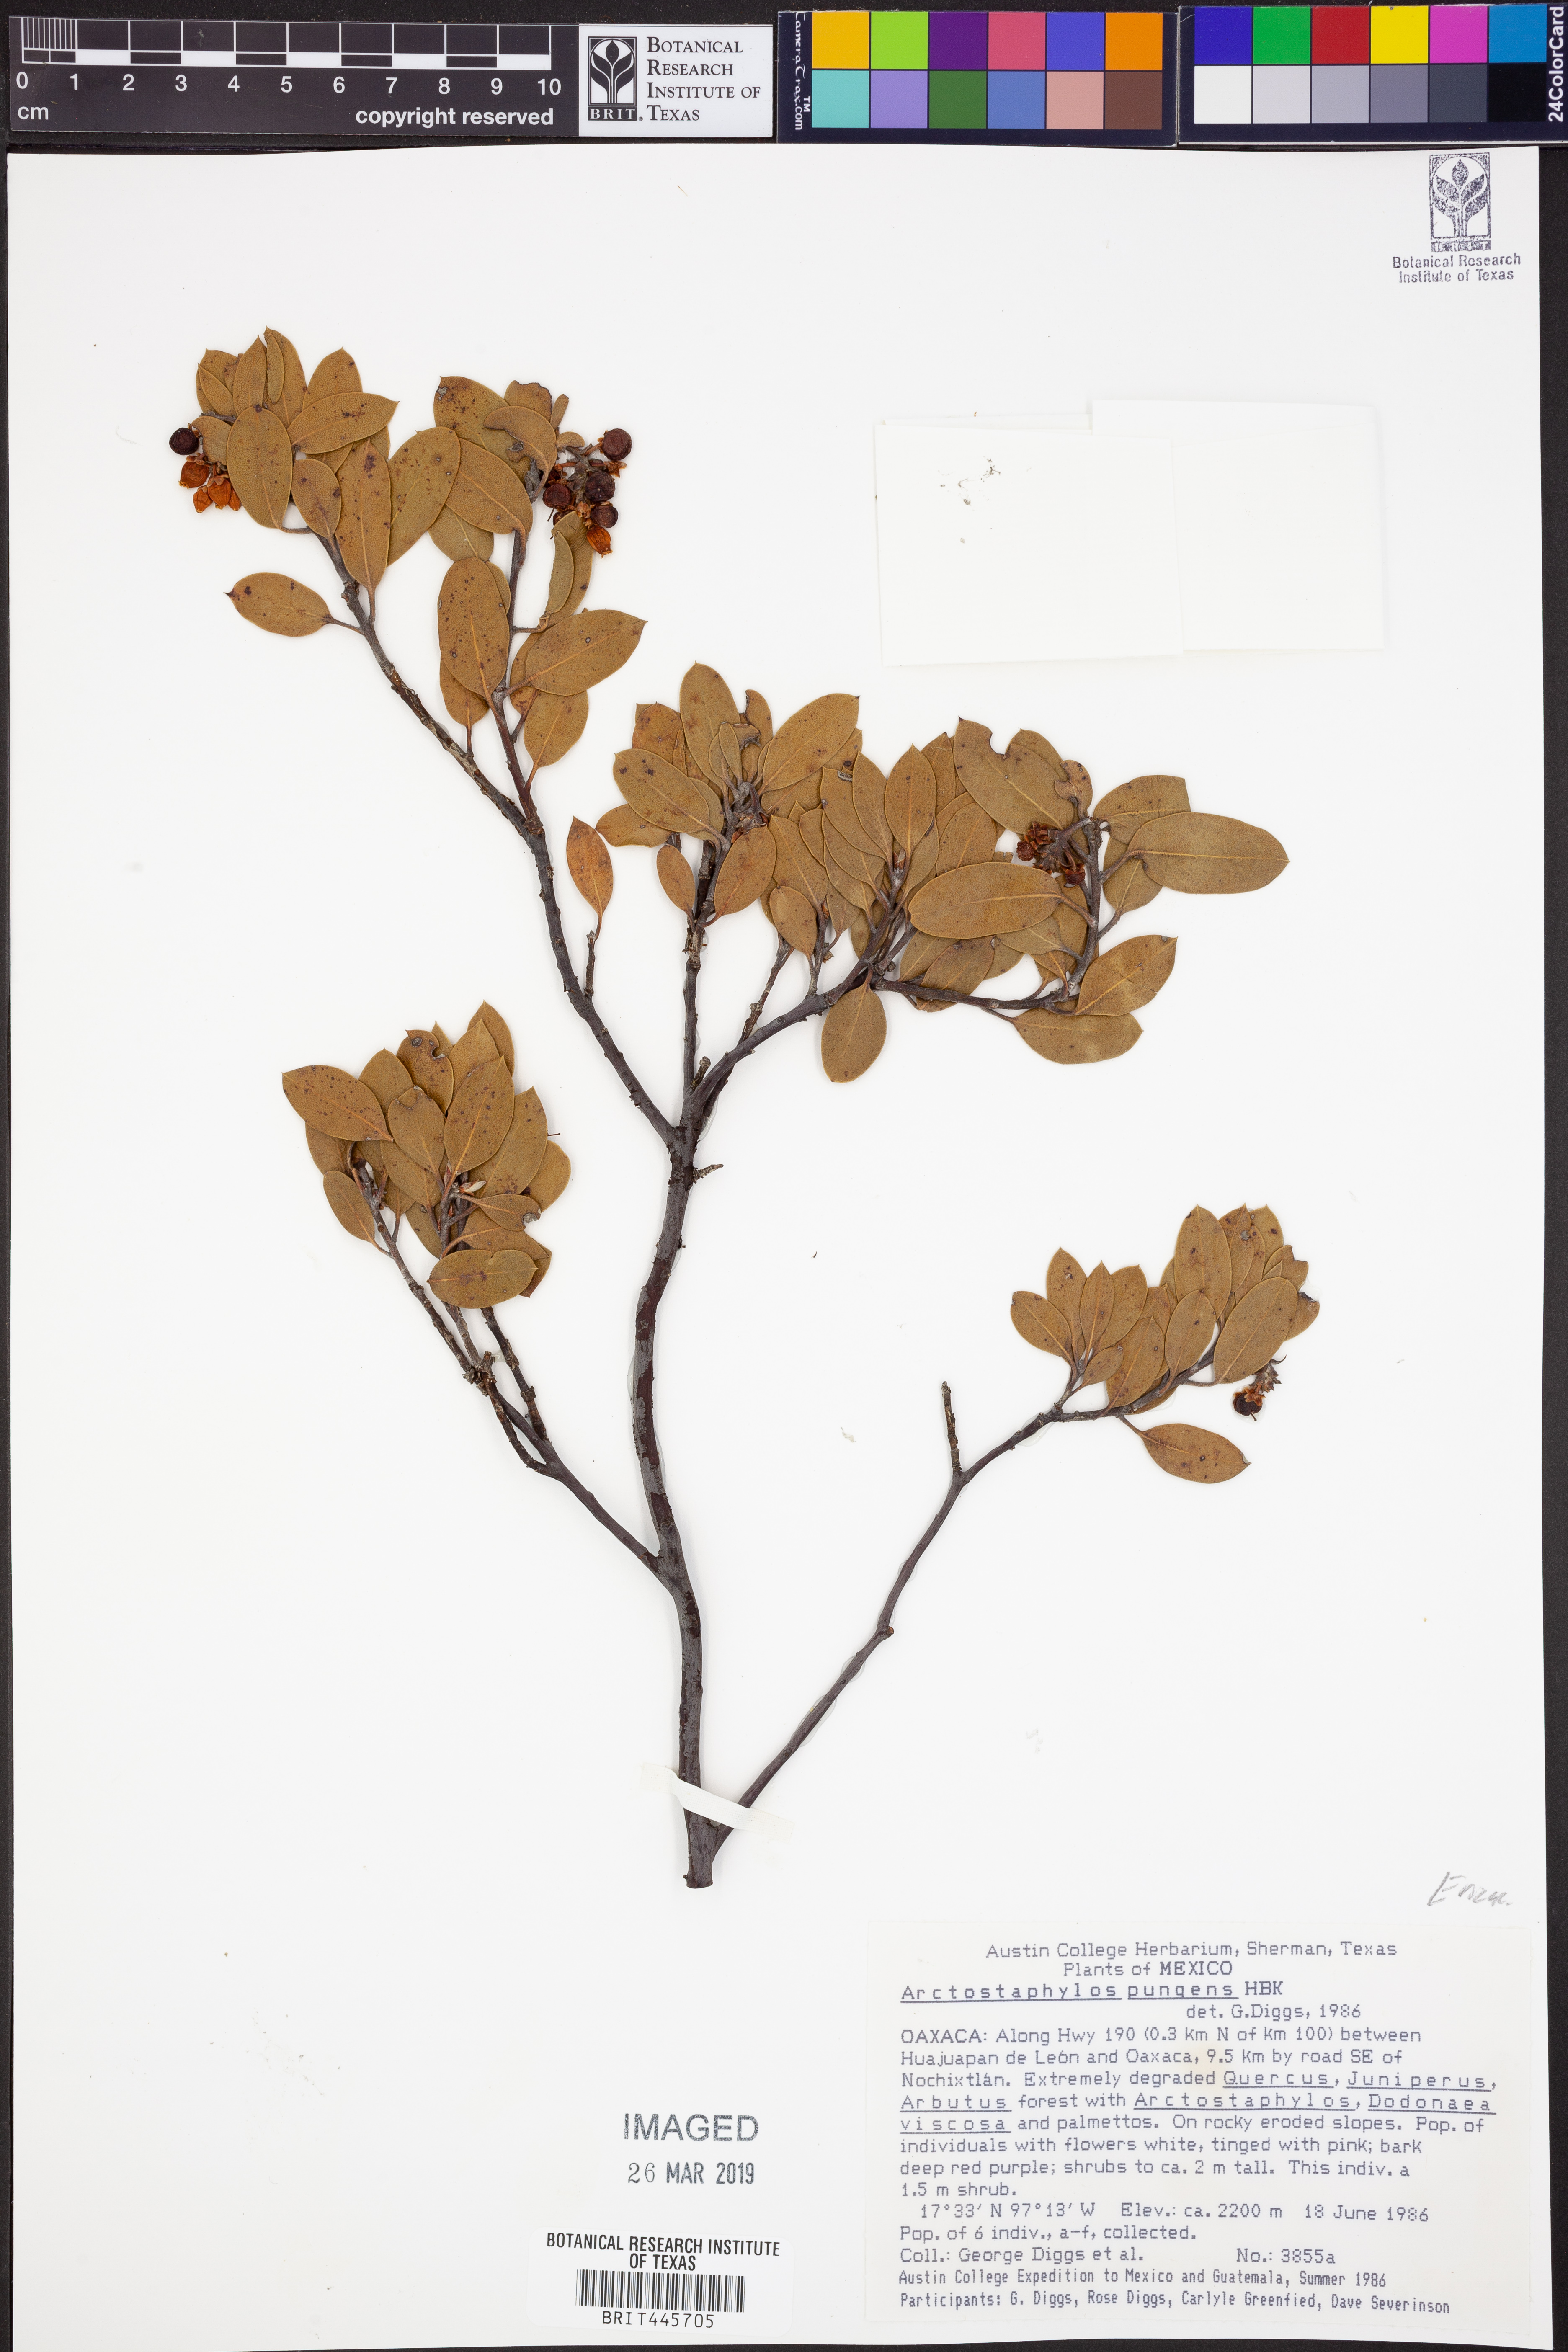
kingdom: Plantae
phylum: Tracheophyta
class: Magnoliopsida
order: Ericales
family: Ericaceae
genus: Arctostaphylos
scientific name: Arctostaphylos pungens
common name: Mexican manzanita
